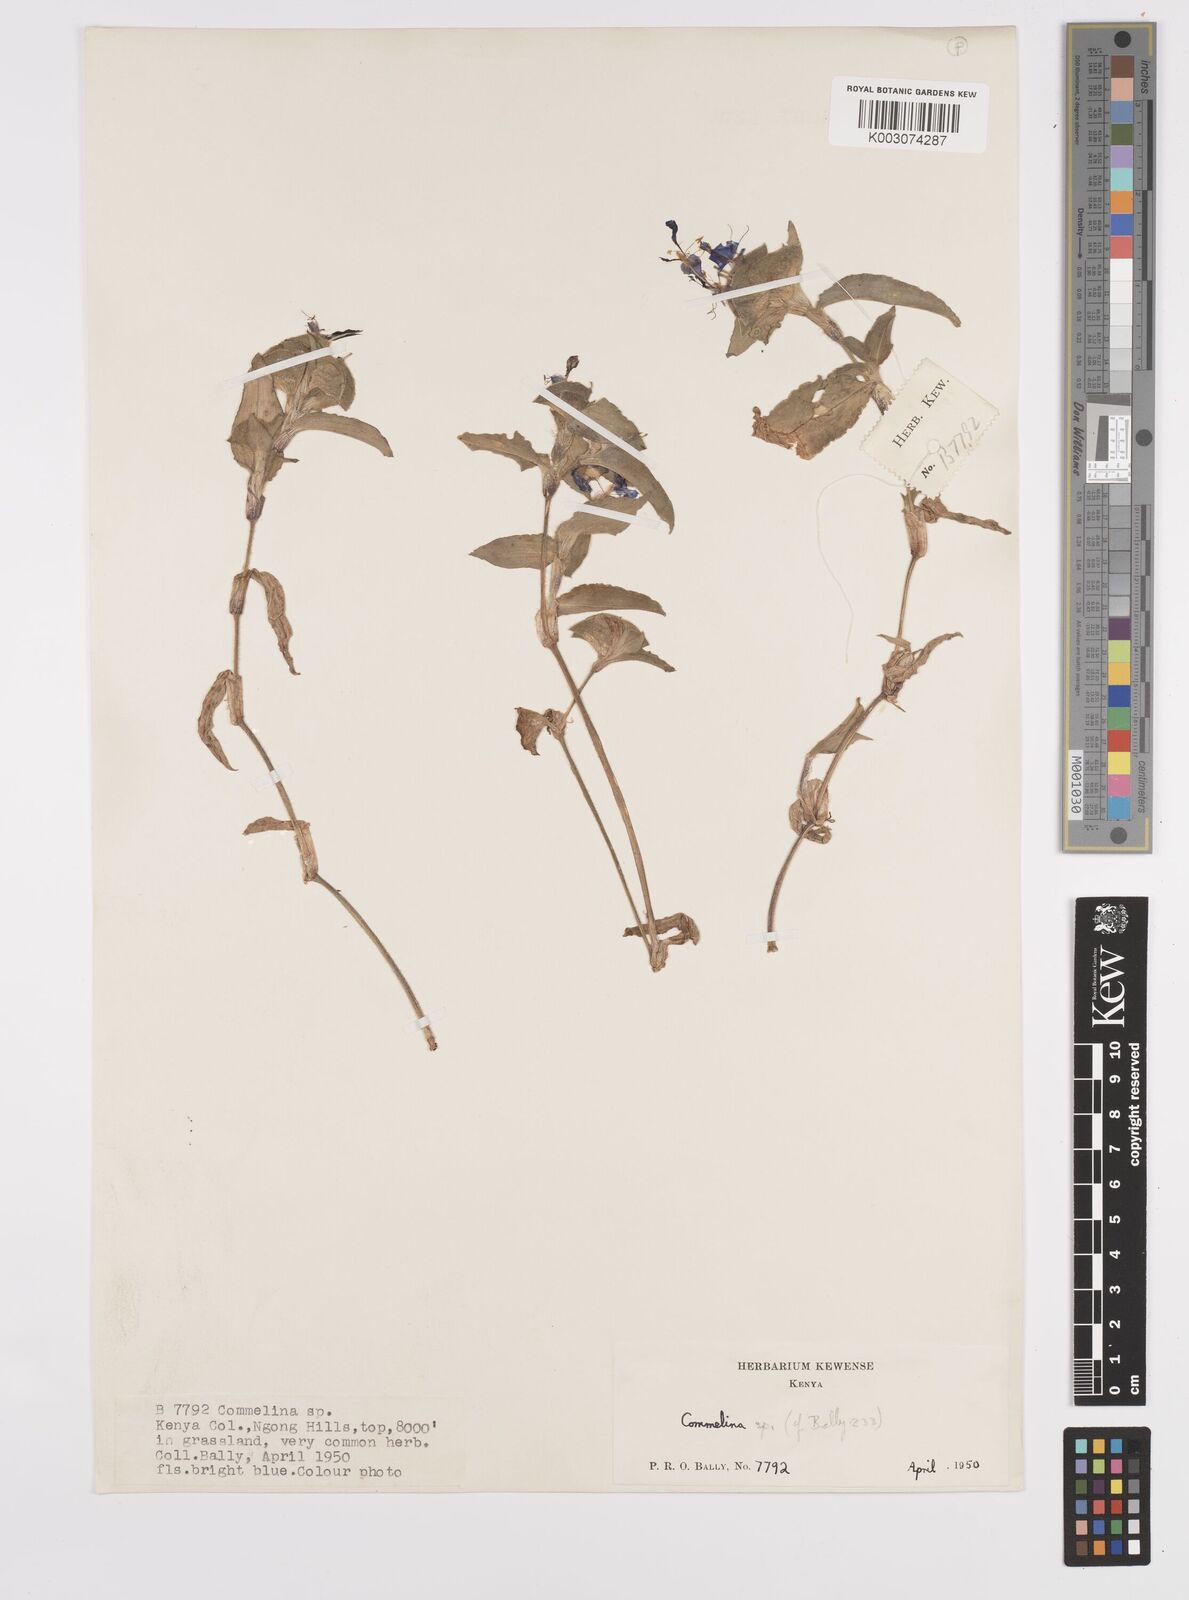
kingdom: Plantae
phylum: Tracheophyta
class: Liliopsida
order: Commelinales
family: Commelinaceae
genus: Commelina
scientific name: Commelina benghalensis
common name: Jio
